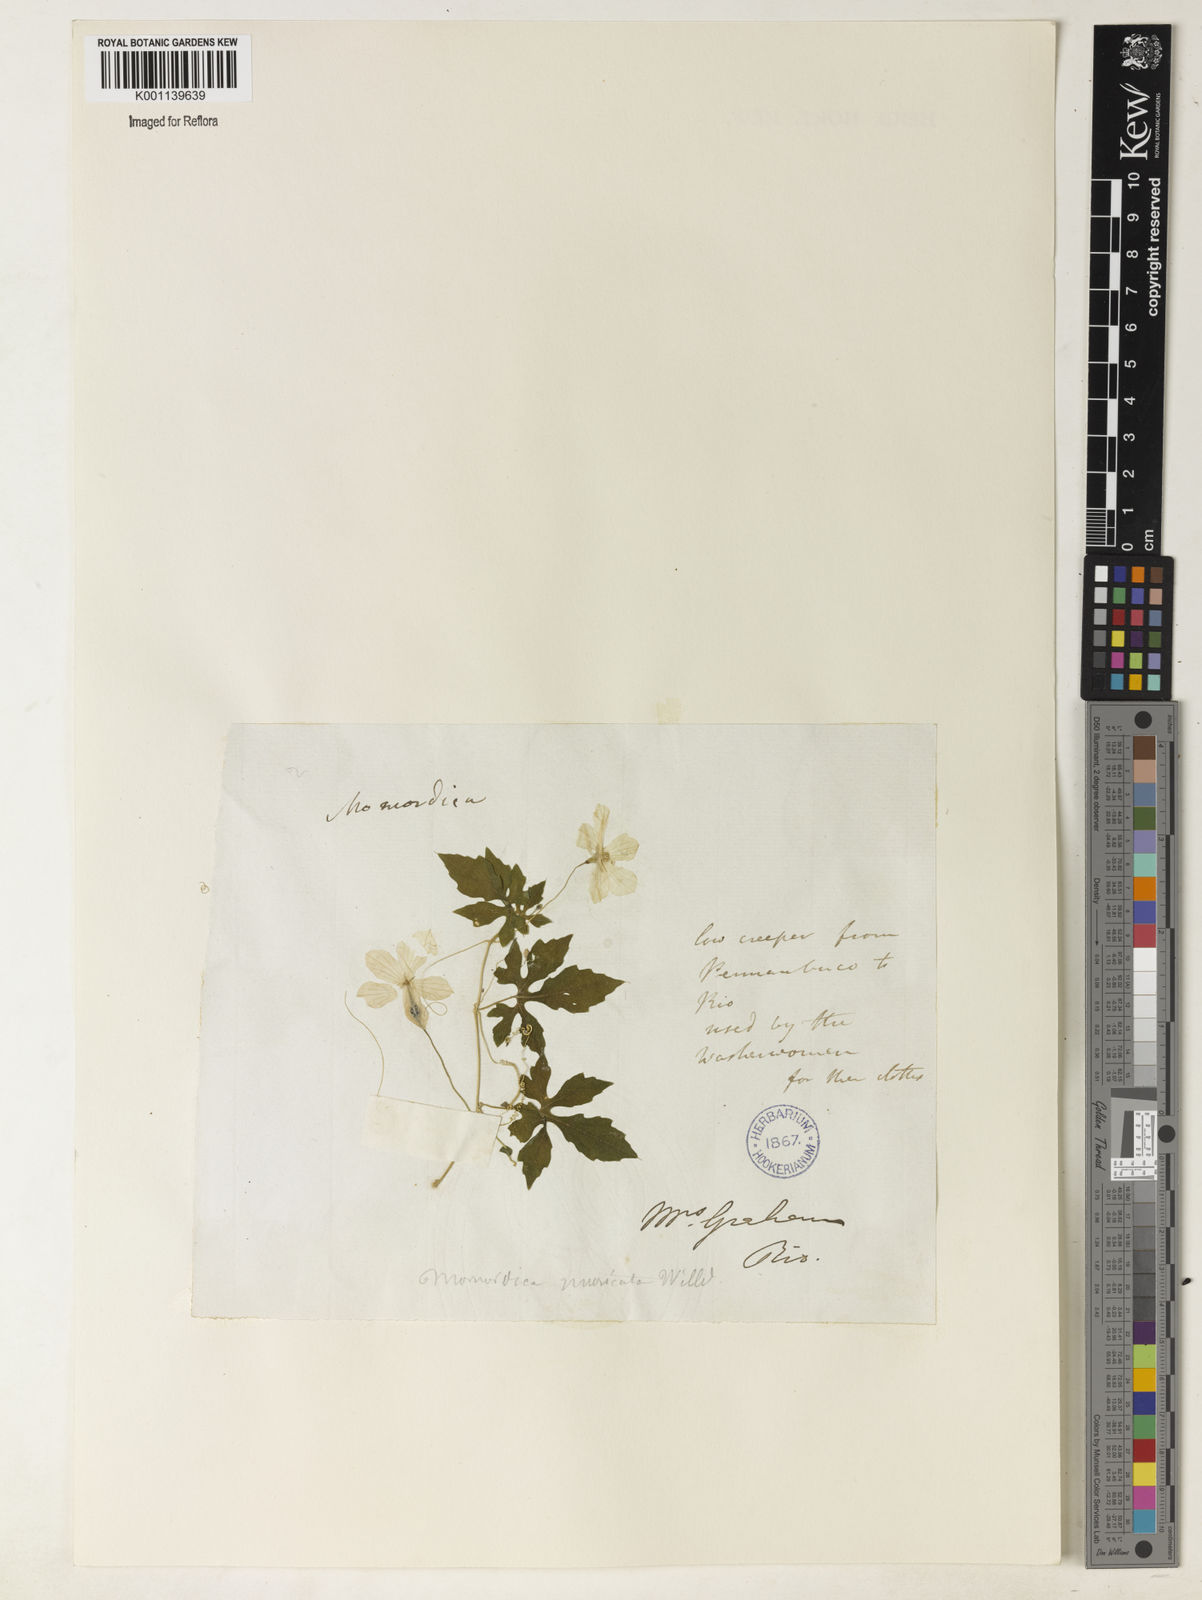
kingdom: Plantae
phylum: Tracheophyta
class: Magnoliopsida
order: Cucurbitales
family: Cucurbitaceae
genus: Momordica
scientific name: Momordica charantia
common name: Balsampear
